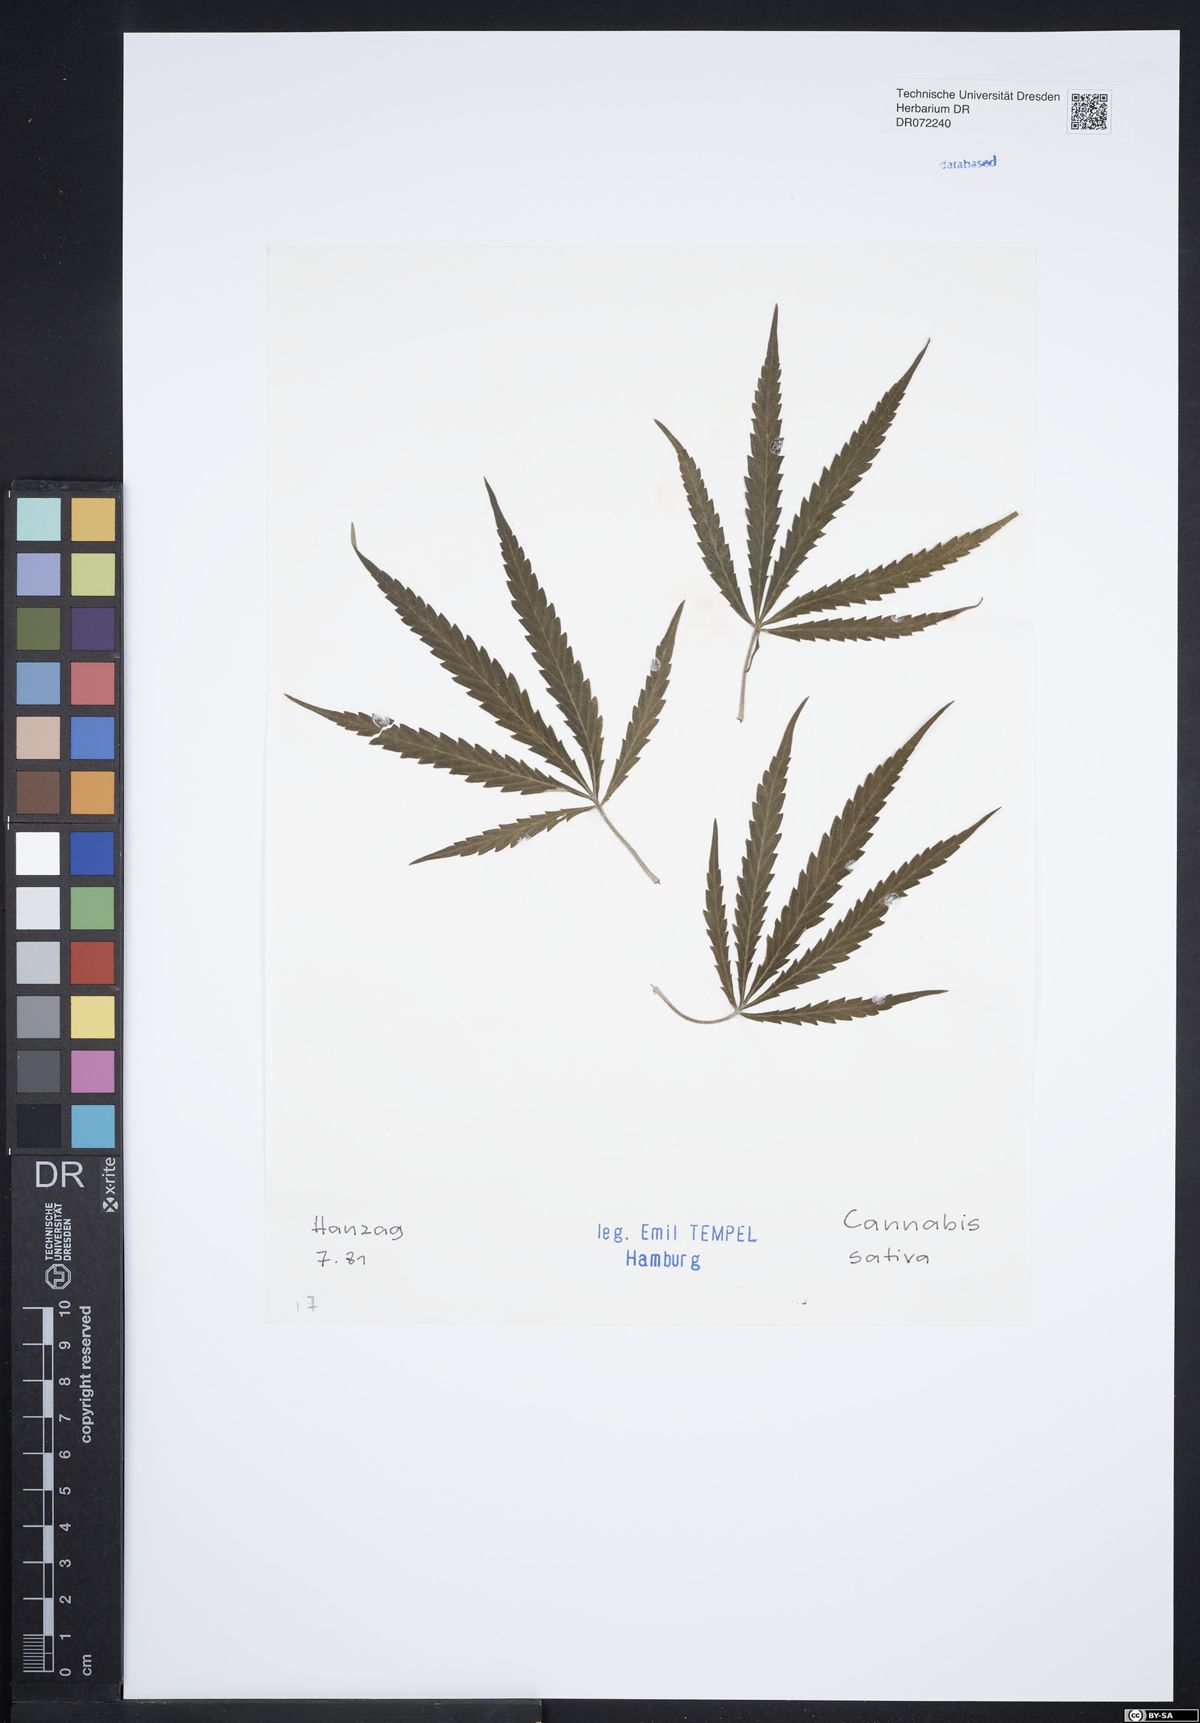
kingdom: Plantae
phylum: Tracheophyta
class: Magnoliopsida
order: Rosales
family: Cannabaceae
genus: Cannabis
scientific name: Cannabis sativa
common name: Hemp
